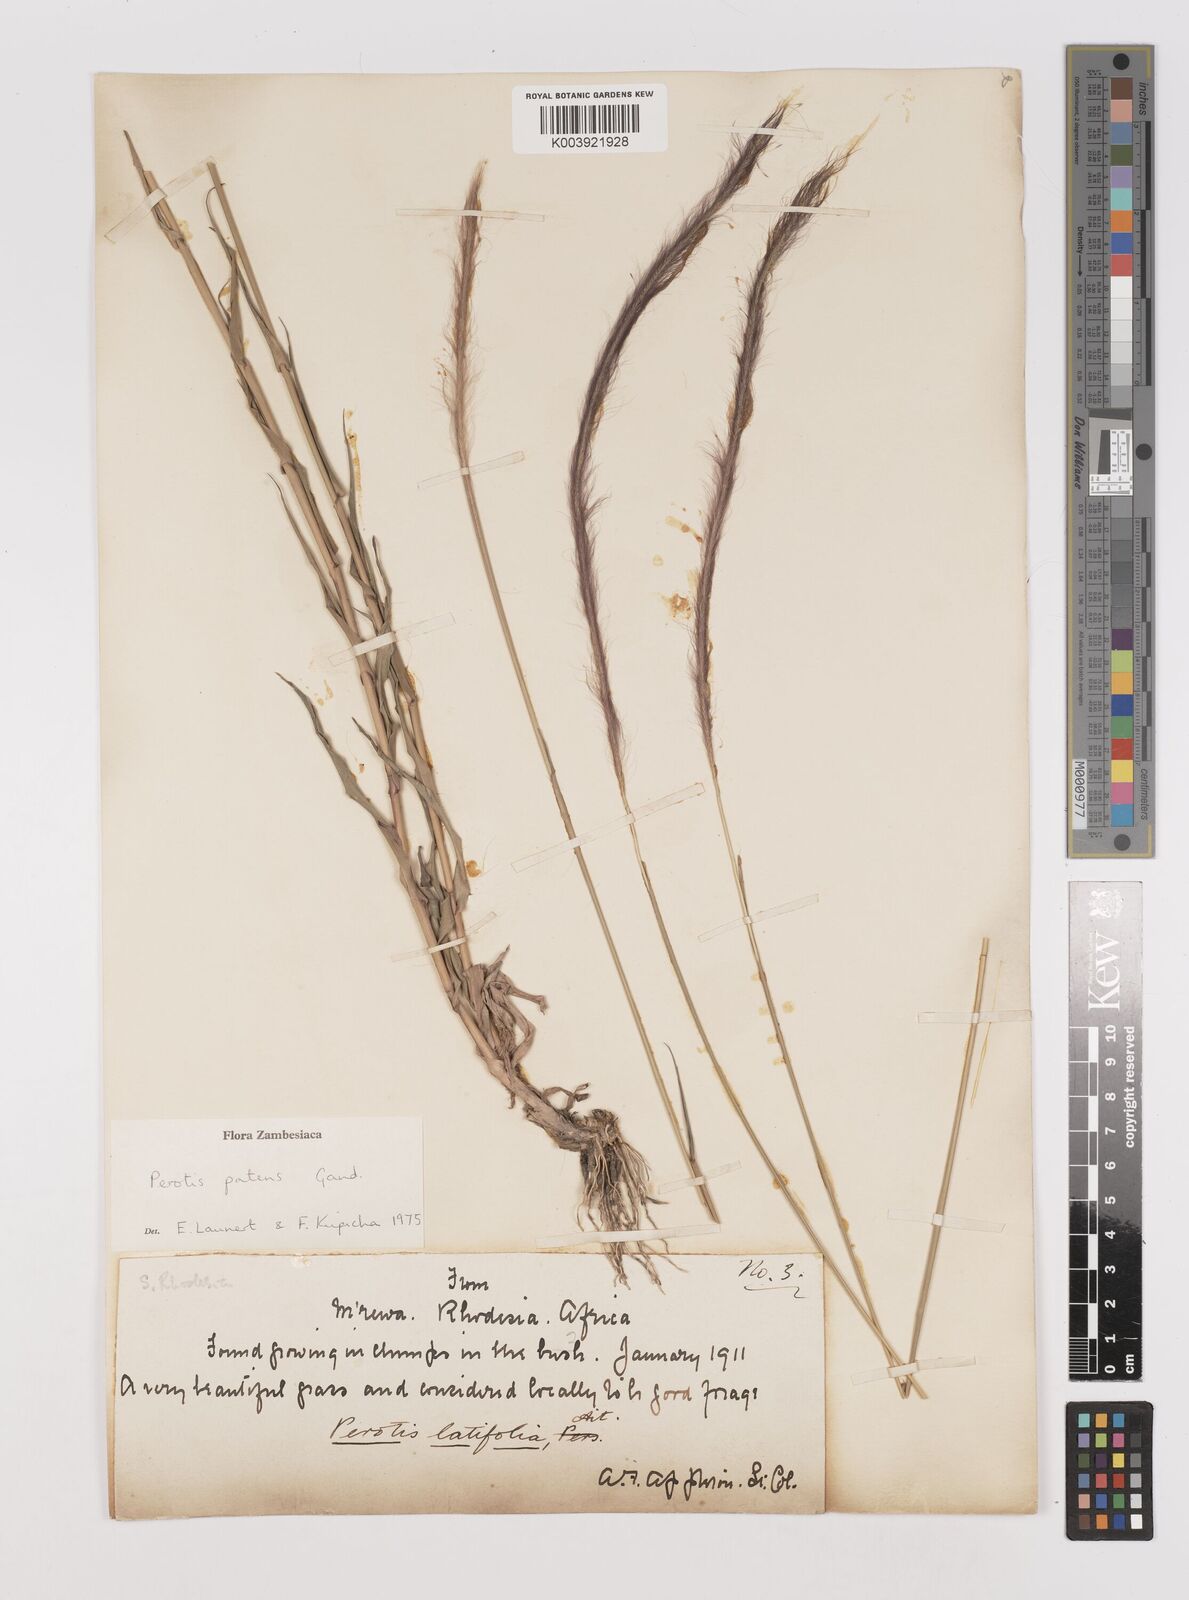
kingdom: Plantae
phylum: Tracheophyta
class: Liliopsida
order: Poales
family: Poaceae
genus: Perotis
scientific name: Perotis patens
